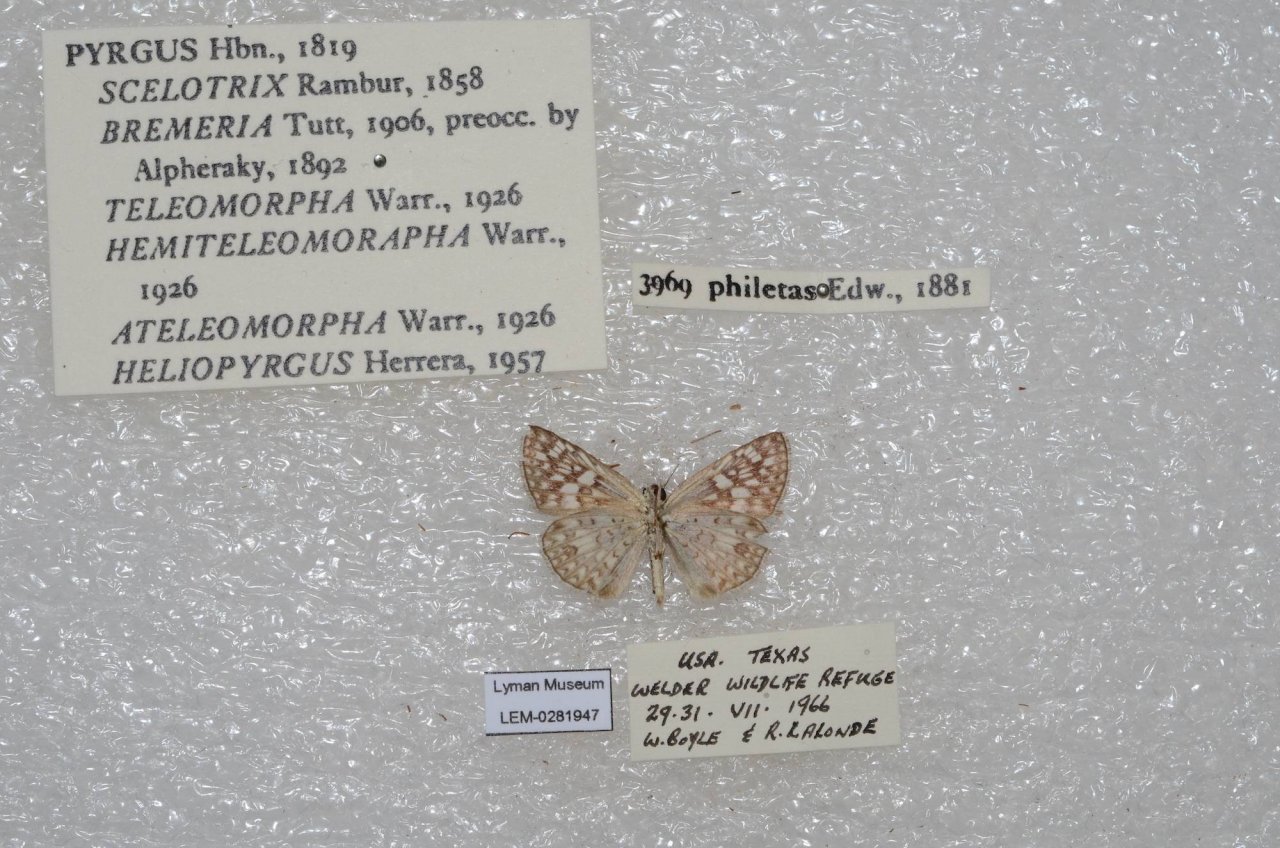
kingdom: Animalia
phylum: Arthropoda
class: Insecta
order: Lepidoptera
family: Hesperiidae
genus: Pyrgus
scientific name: Pyrgus oileus
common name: Desert Checkered-Skipper
